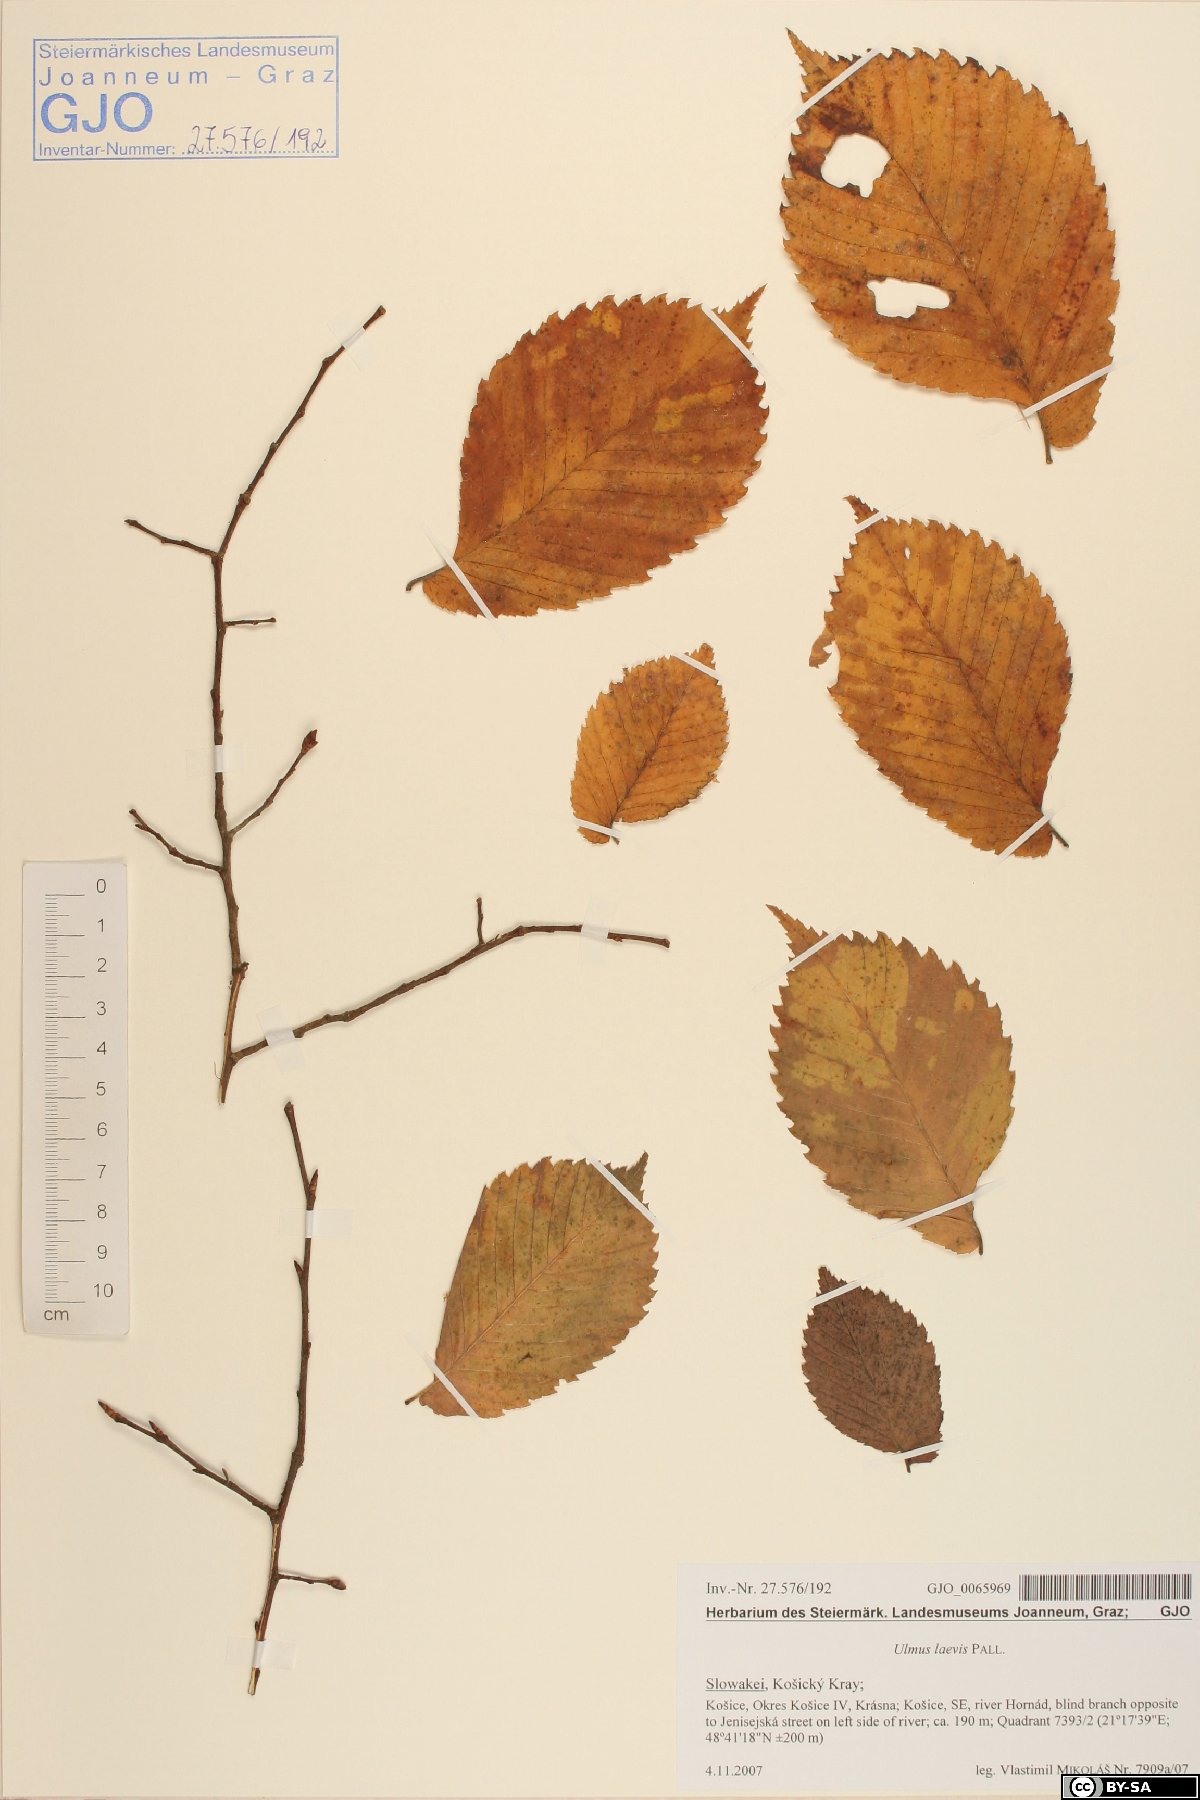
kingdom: Plantae
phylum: Tracheophyta
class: Magnoliopsida
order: Rosales
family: Ulmaceae
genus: Ulmus
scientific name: Ulmus laevis
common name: European white-elm
